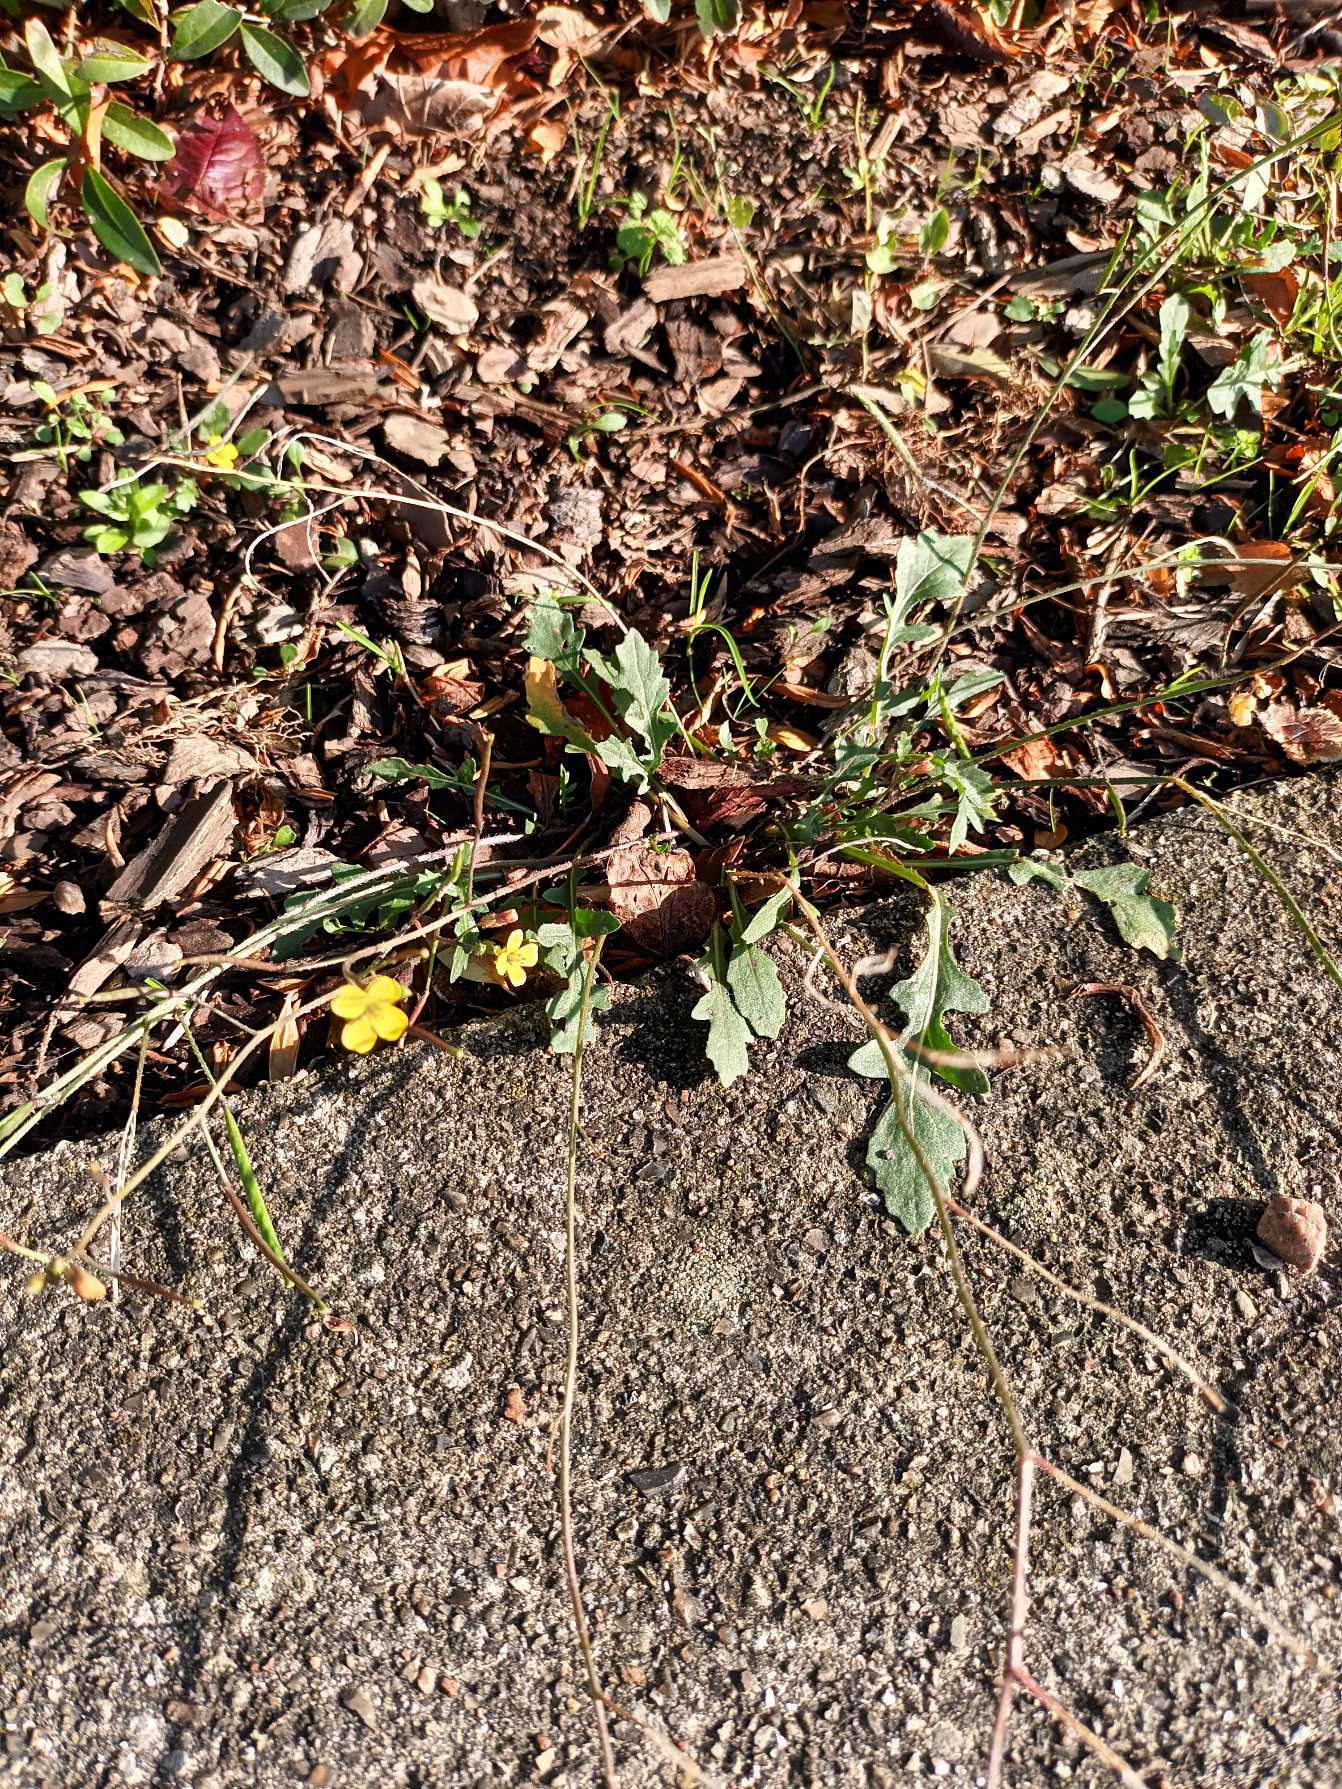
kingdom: Plantae
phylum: Tracheophyta
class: Magnoliopsida
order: Brassicales
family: Brassicaceae
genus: Diplotaxis
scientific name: Diplotaxis muralis
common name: Mursennep
